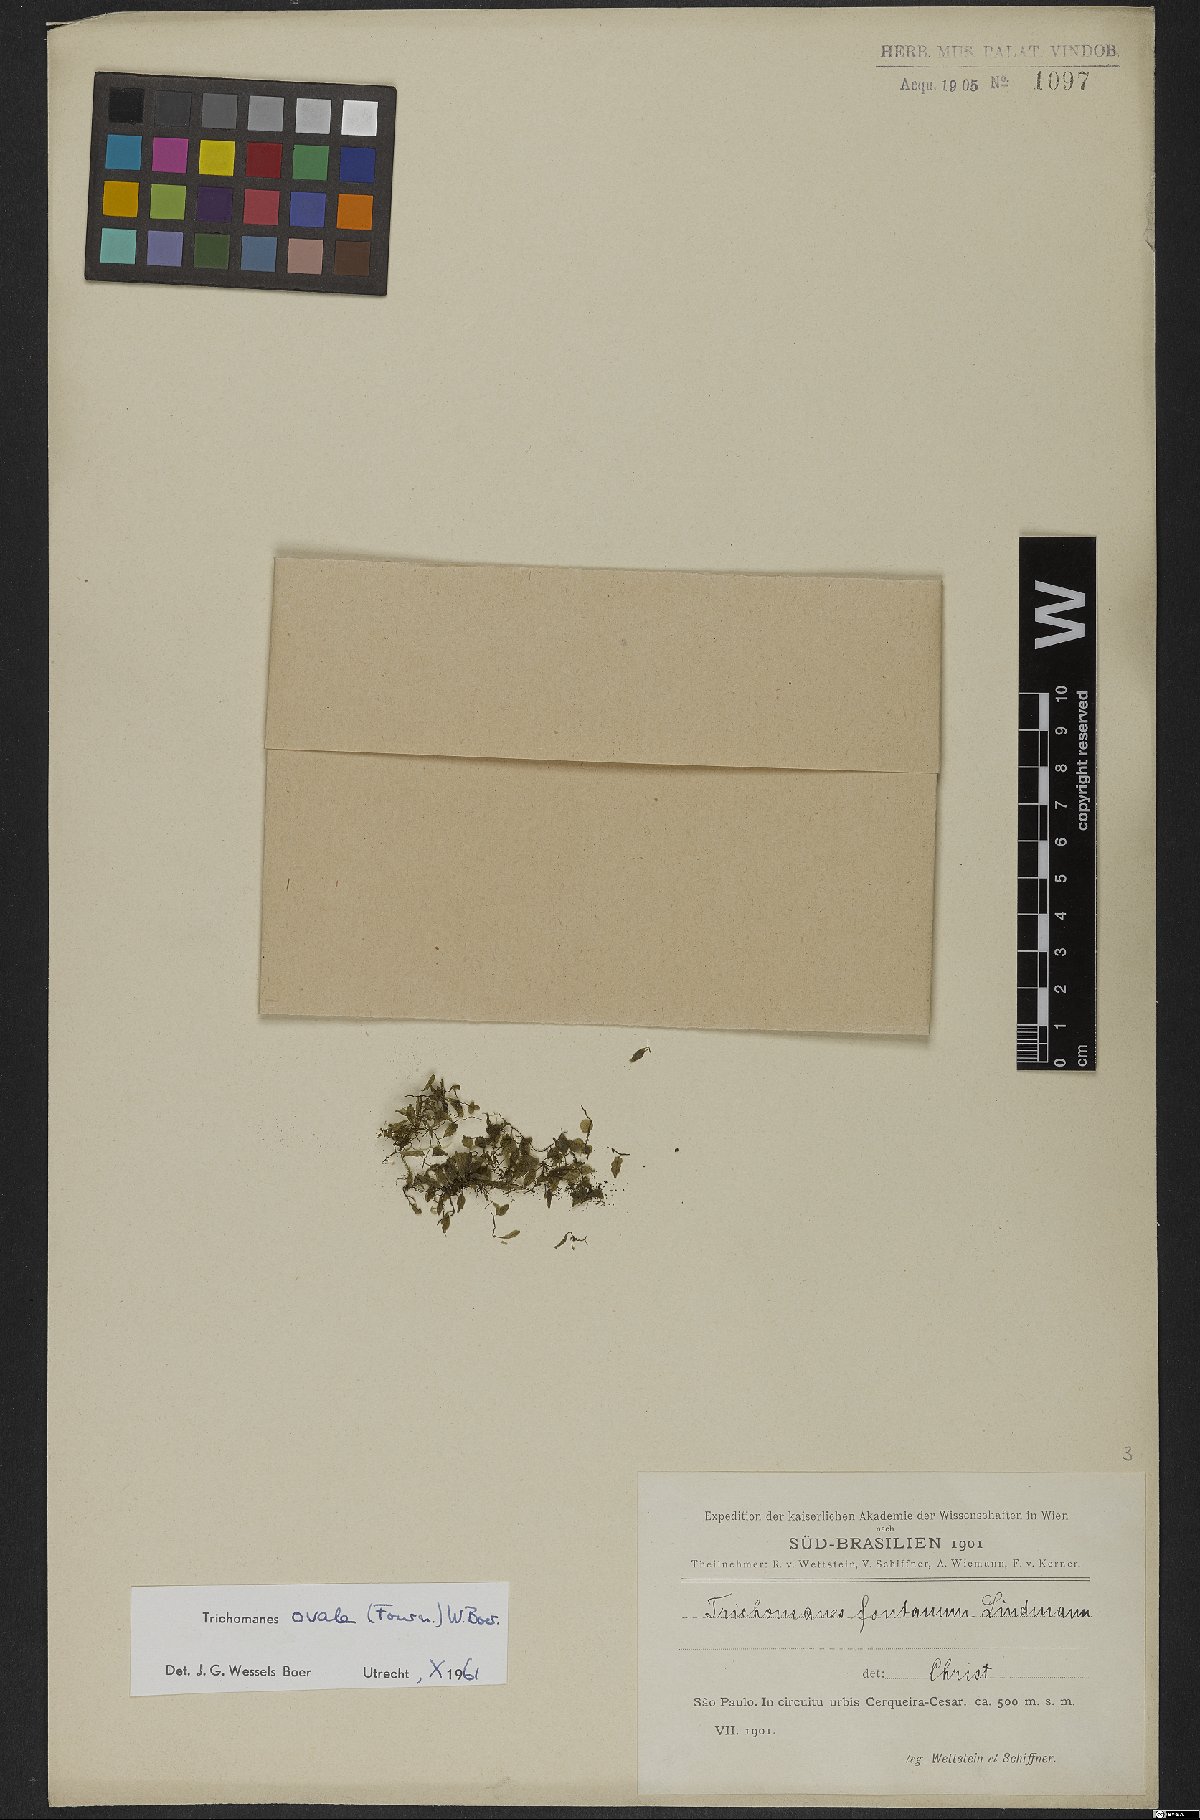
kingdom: Plantae
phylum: Tracheophyta
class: Polypodiopsida
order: Hymenophyllales
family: Hymenophyllaceae
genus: Didymoglossum
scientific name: Didymoglossum ovale
